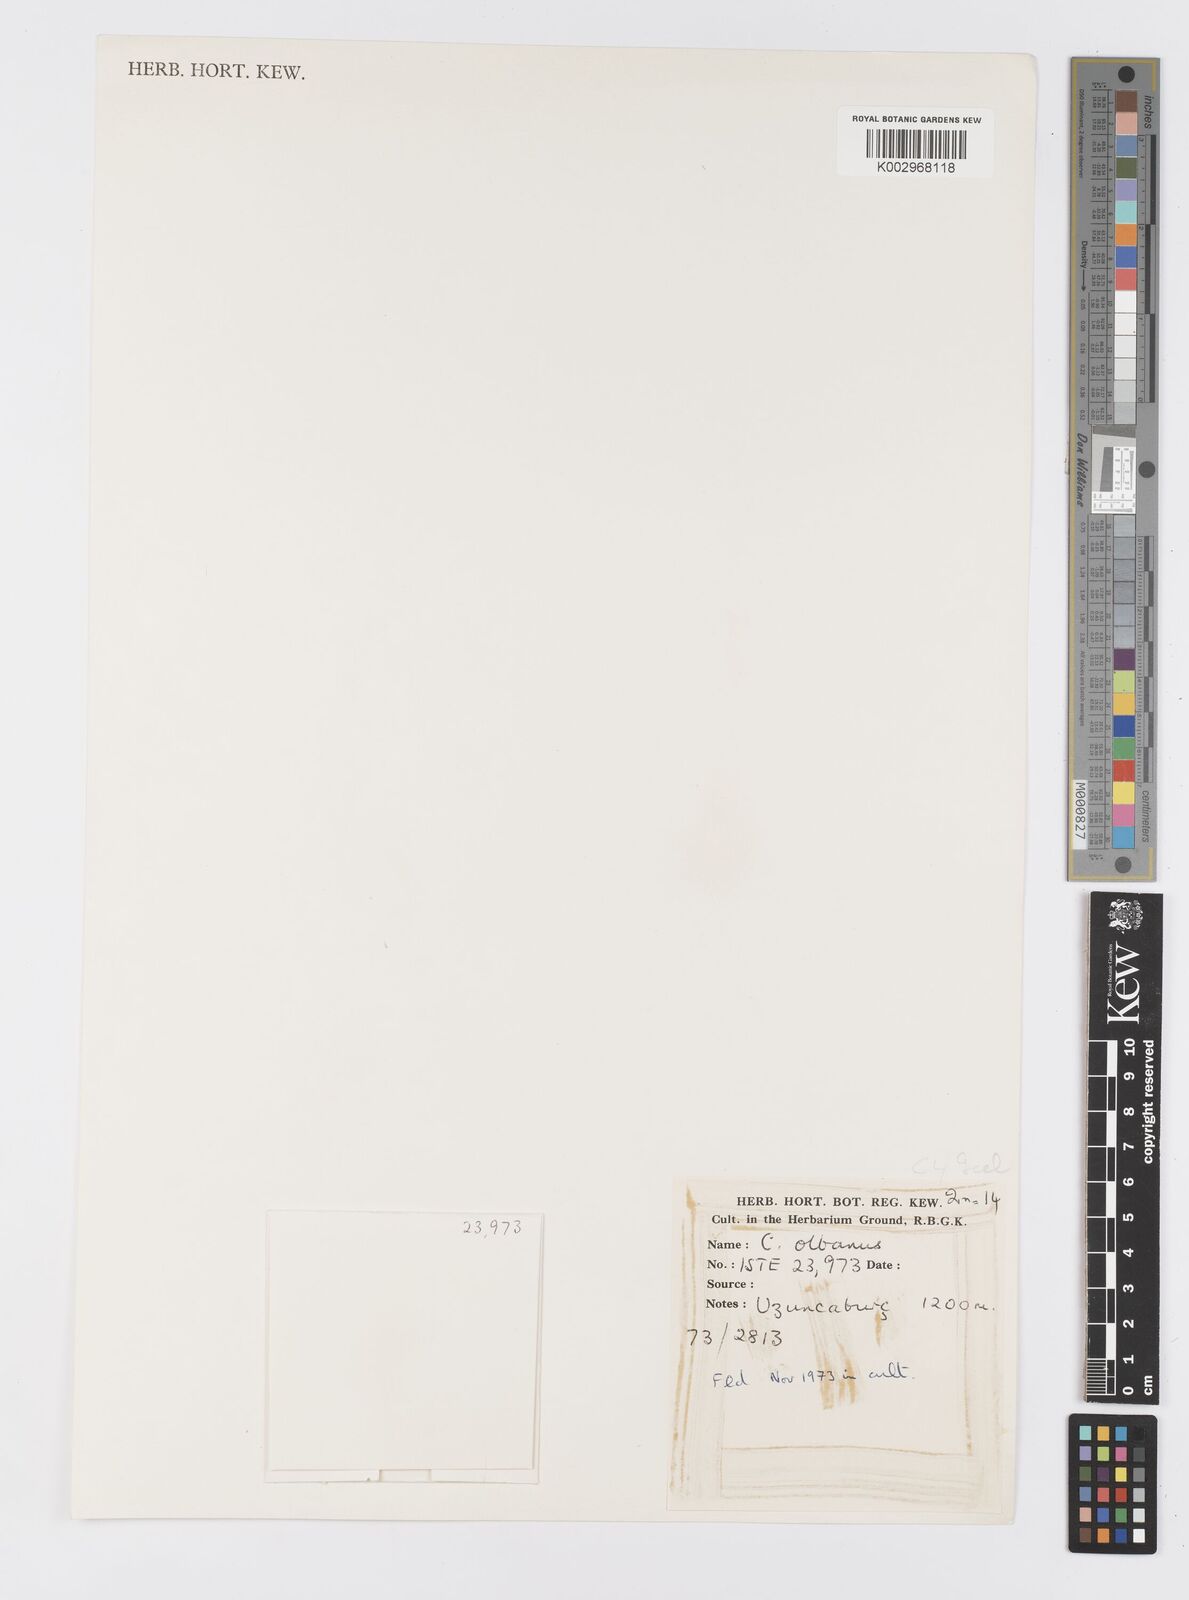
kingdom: Plantae
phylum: Tracheophyta
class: Liliopsida
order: Asparagales
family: Iridaceae
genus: Crocus
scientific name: Crocus
